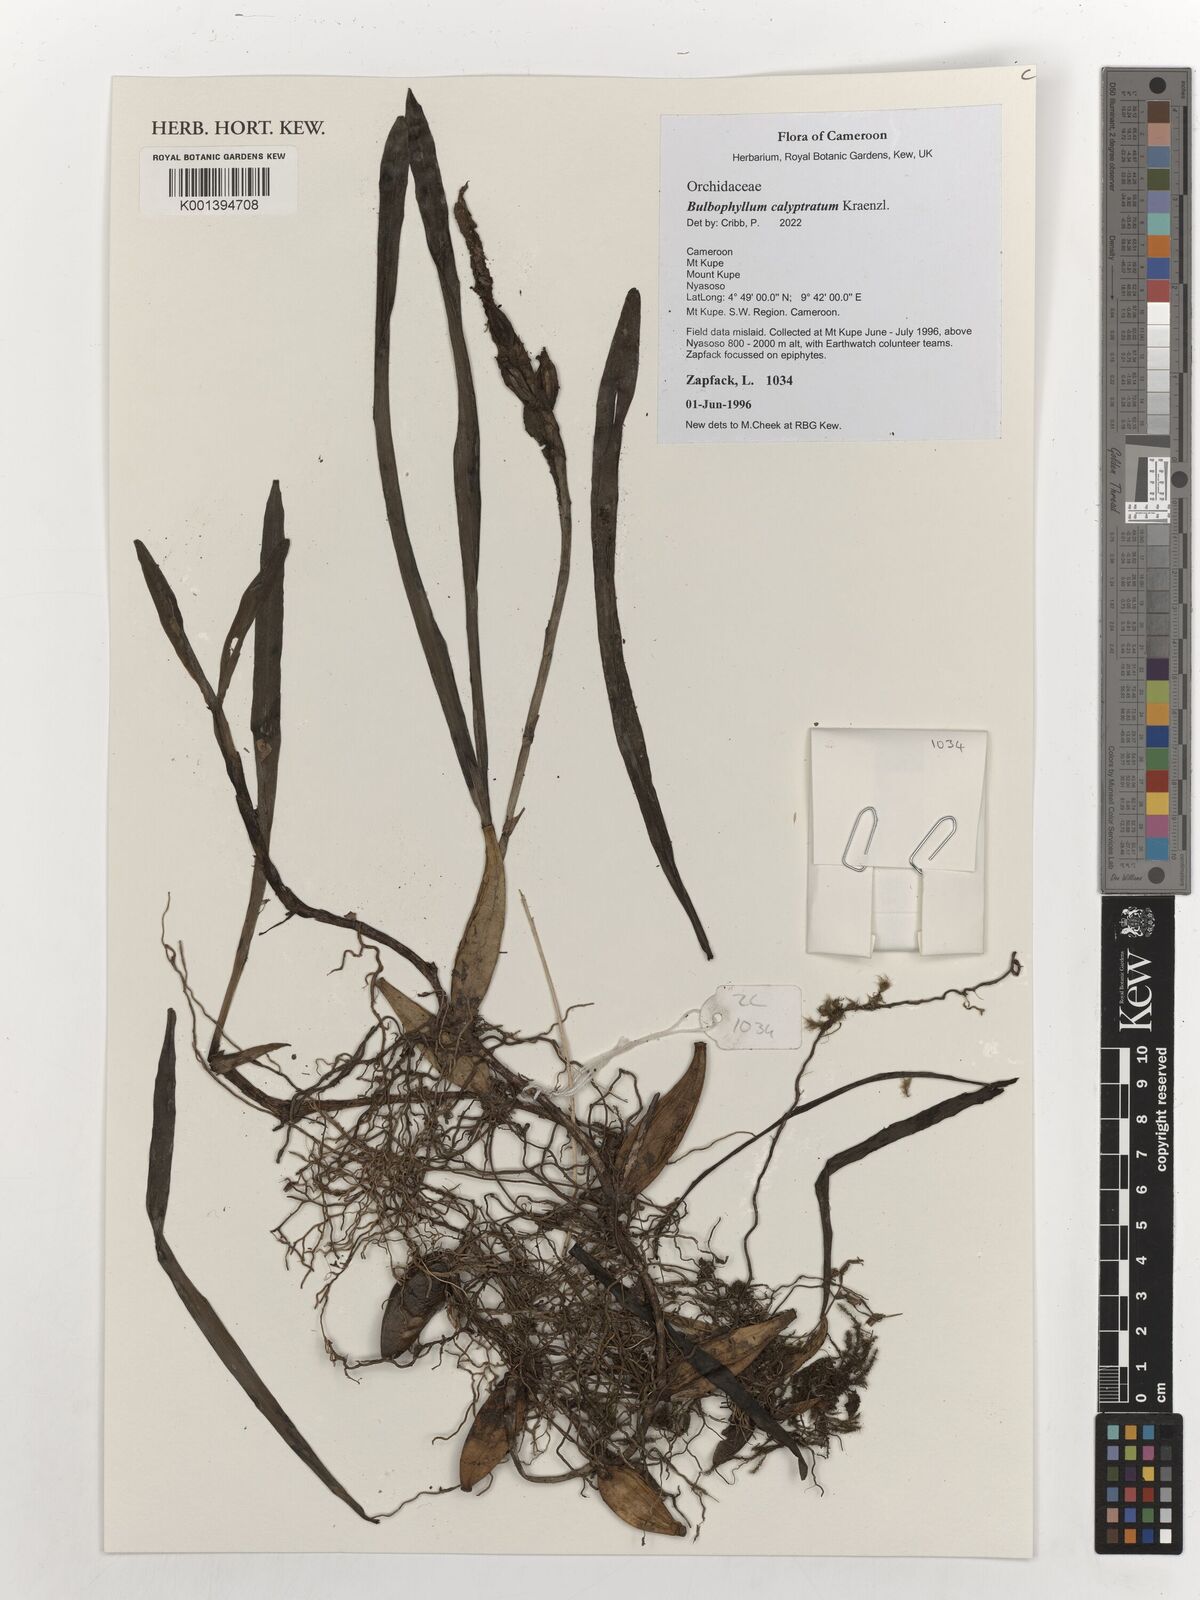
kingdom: Plantae
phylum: Tracheophyta
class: Liliopsida
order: Asparagales
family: Orchidaceae
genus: Bulbophyllum
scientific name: Bulbophyllum calyptratum
